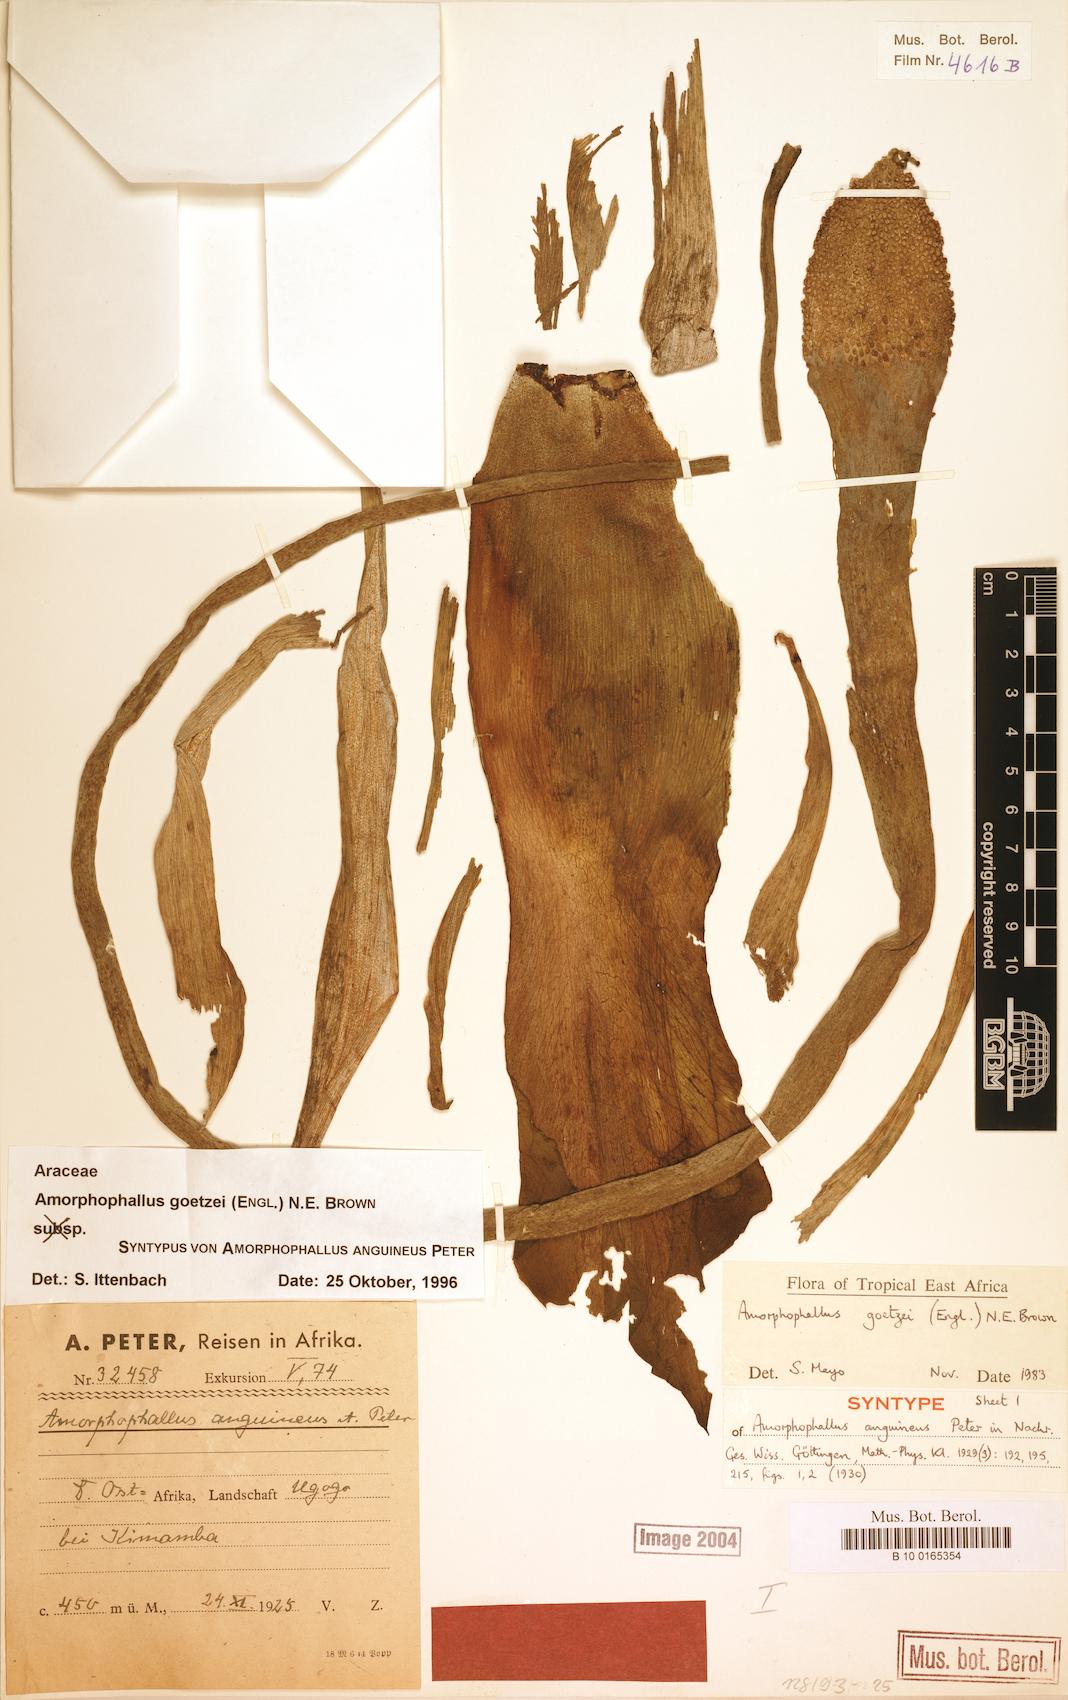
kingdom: Plantae
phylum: Tracheophyta
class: Liliopsida
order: Alismatales
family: Araceae
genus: Amorphophallus
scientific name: Amorphophallus goetzei
